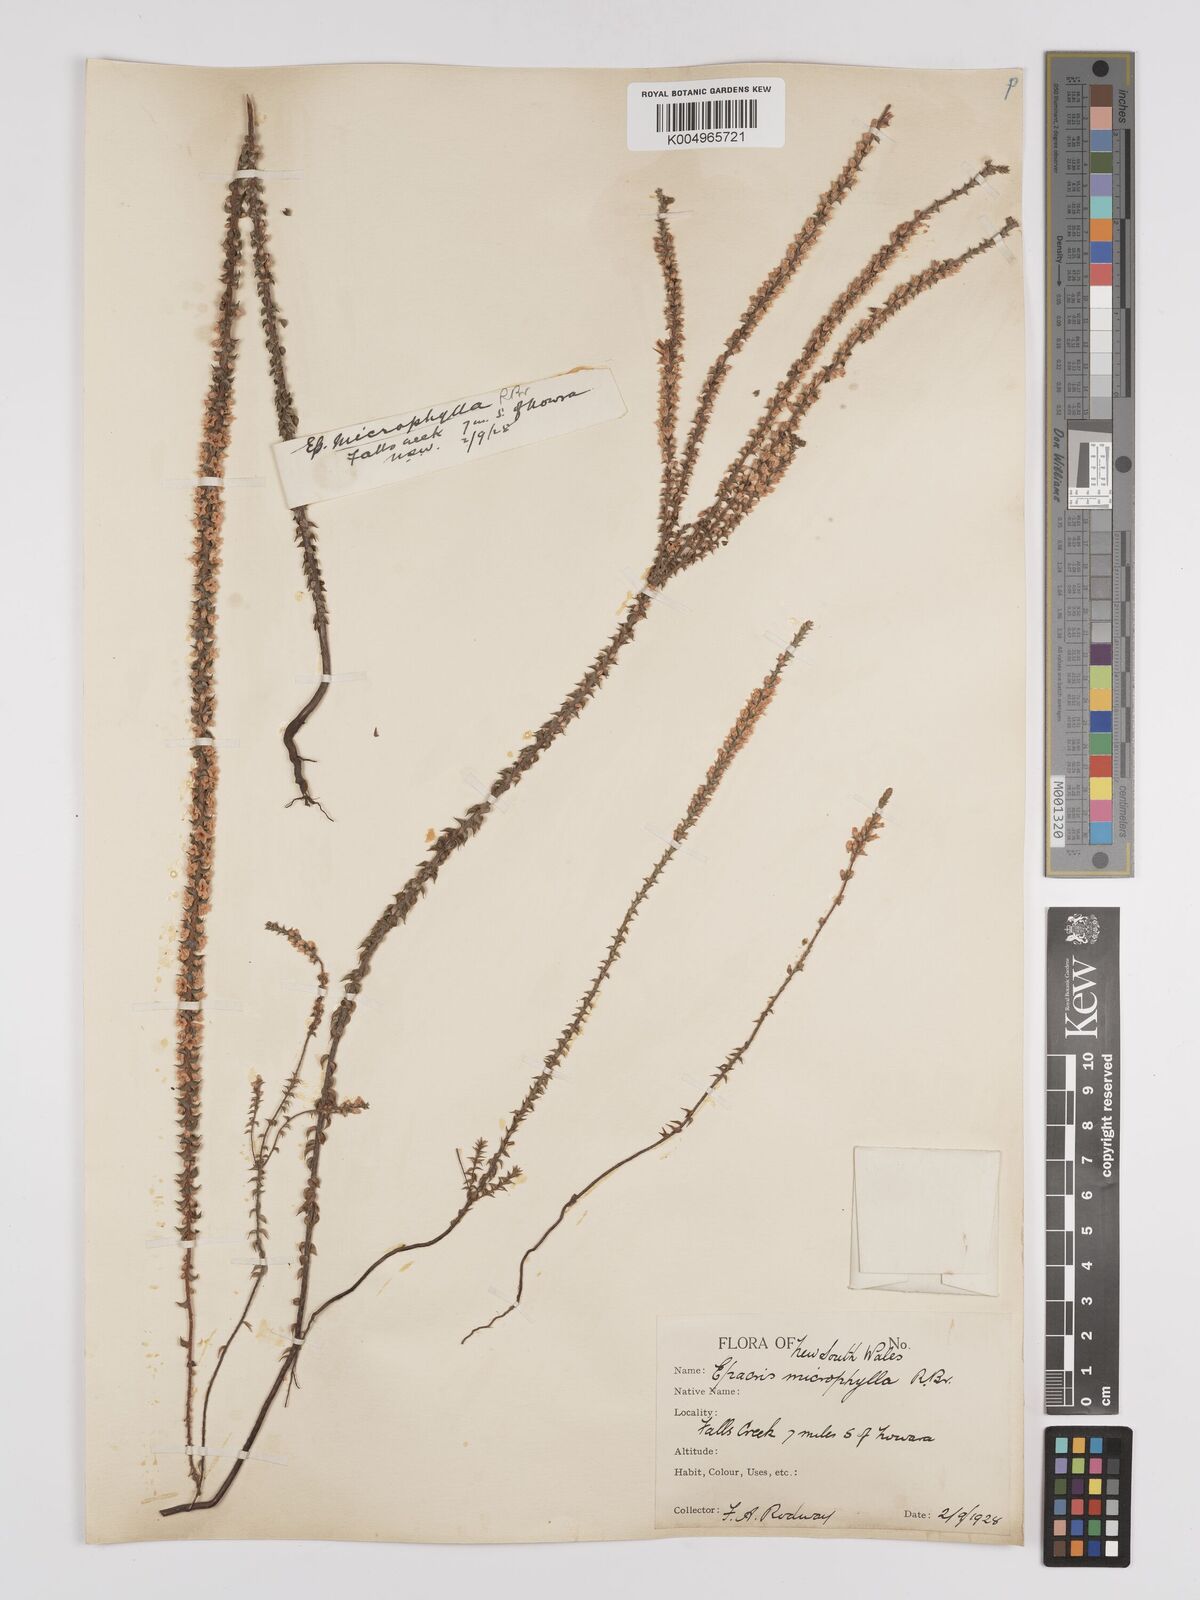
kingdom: Plantae
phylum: Tracheophyta
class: Magnoliopsida
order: Ericales
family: Ericaceae
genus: Epacris
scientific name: Epacris
